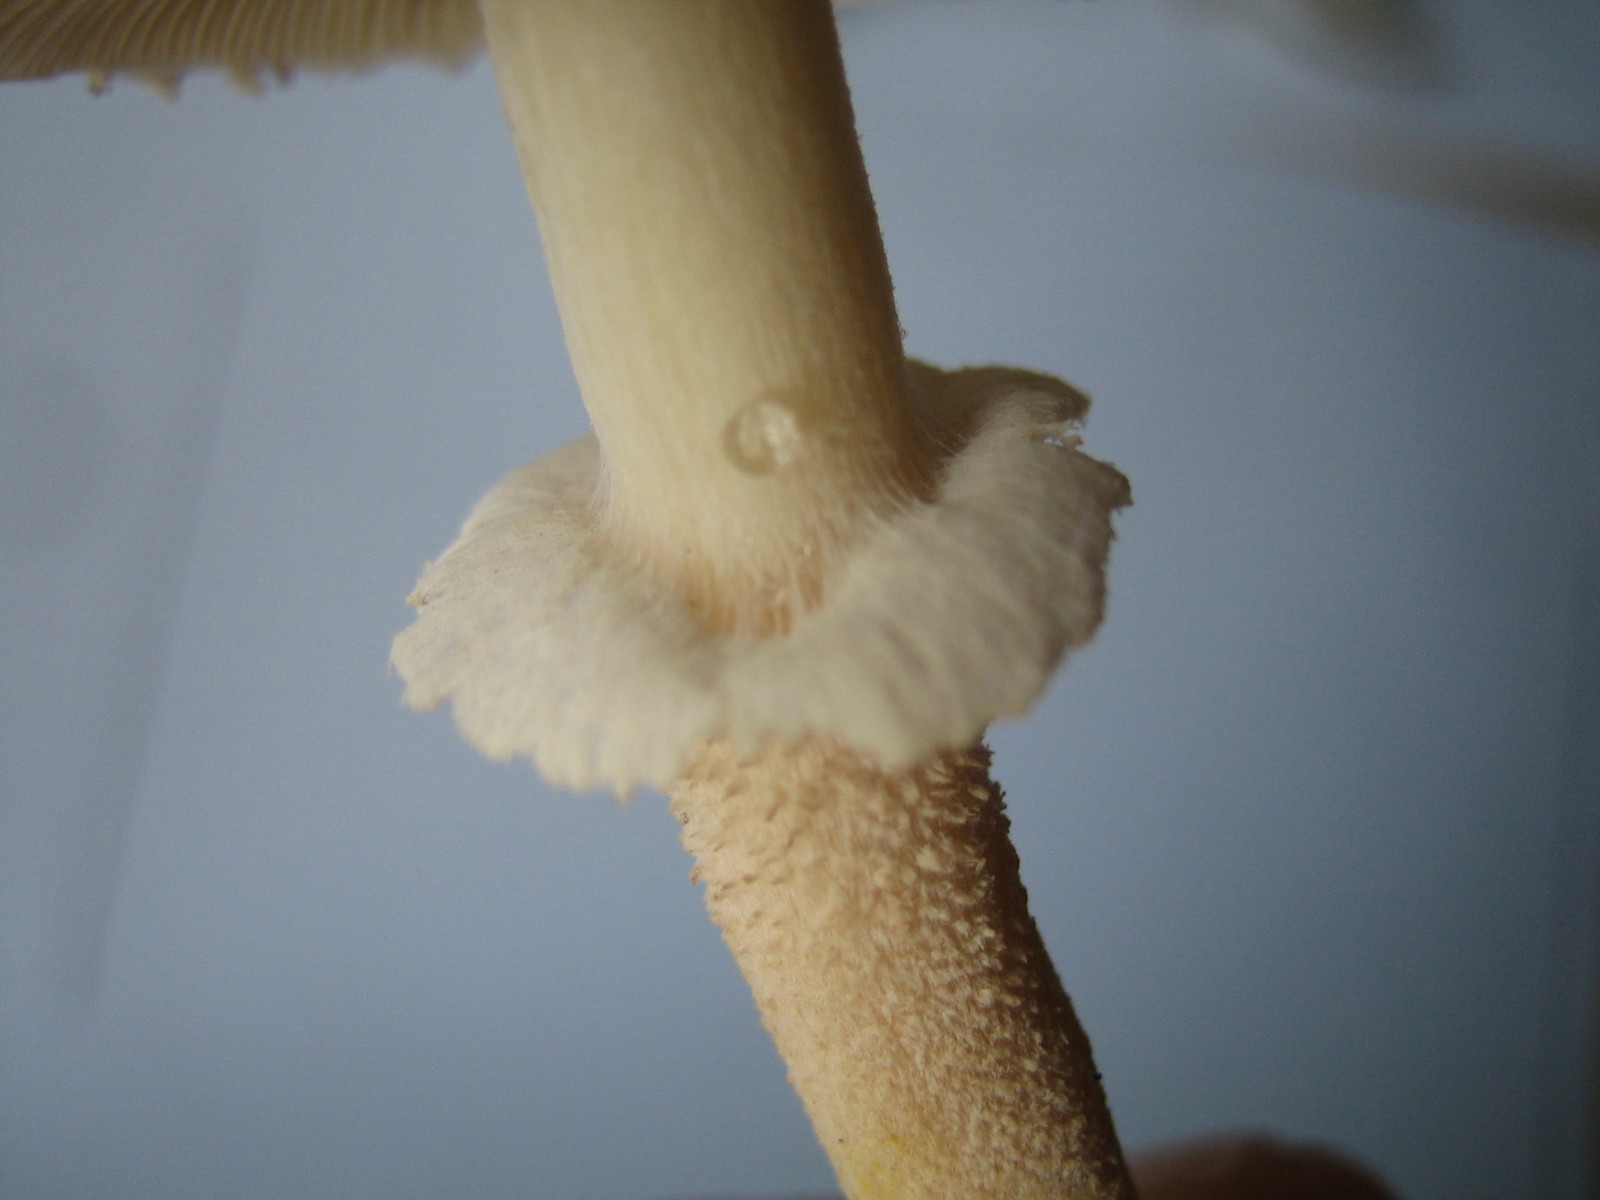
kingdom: Fungi
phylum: Basidiomycota
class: Agaricomycetes
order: Agaricales
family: Tricholomataceae
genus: Cystoderma
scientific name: Cystoderma carcharias
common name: rødgrå grynhat
